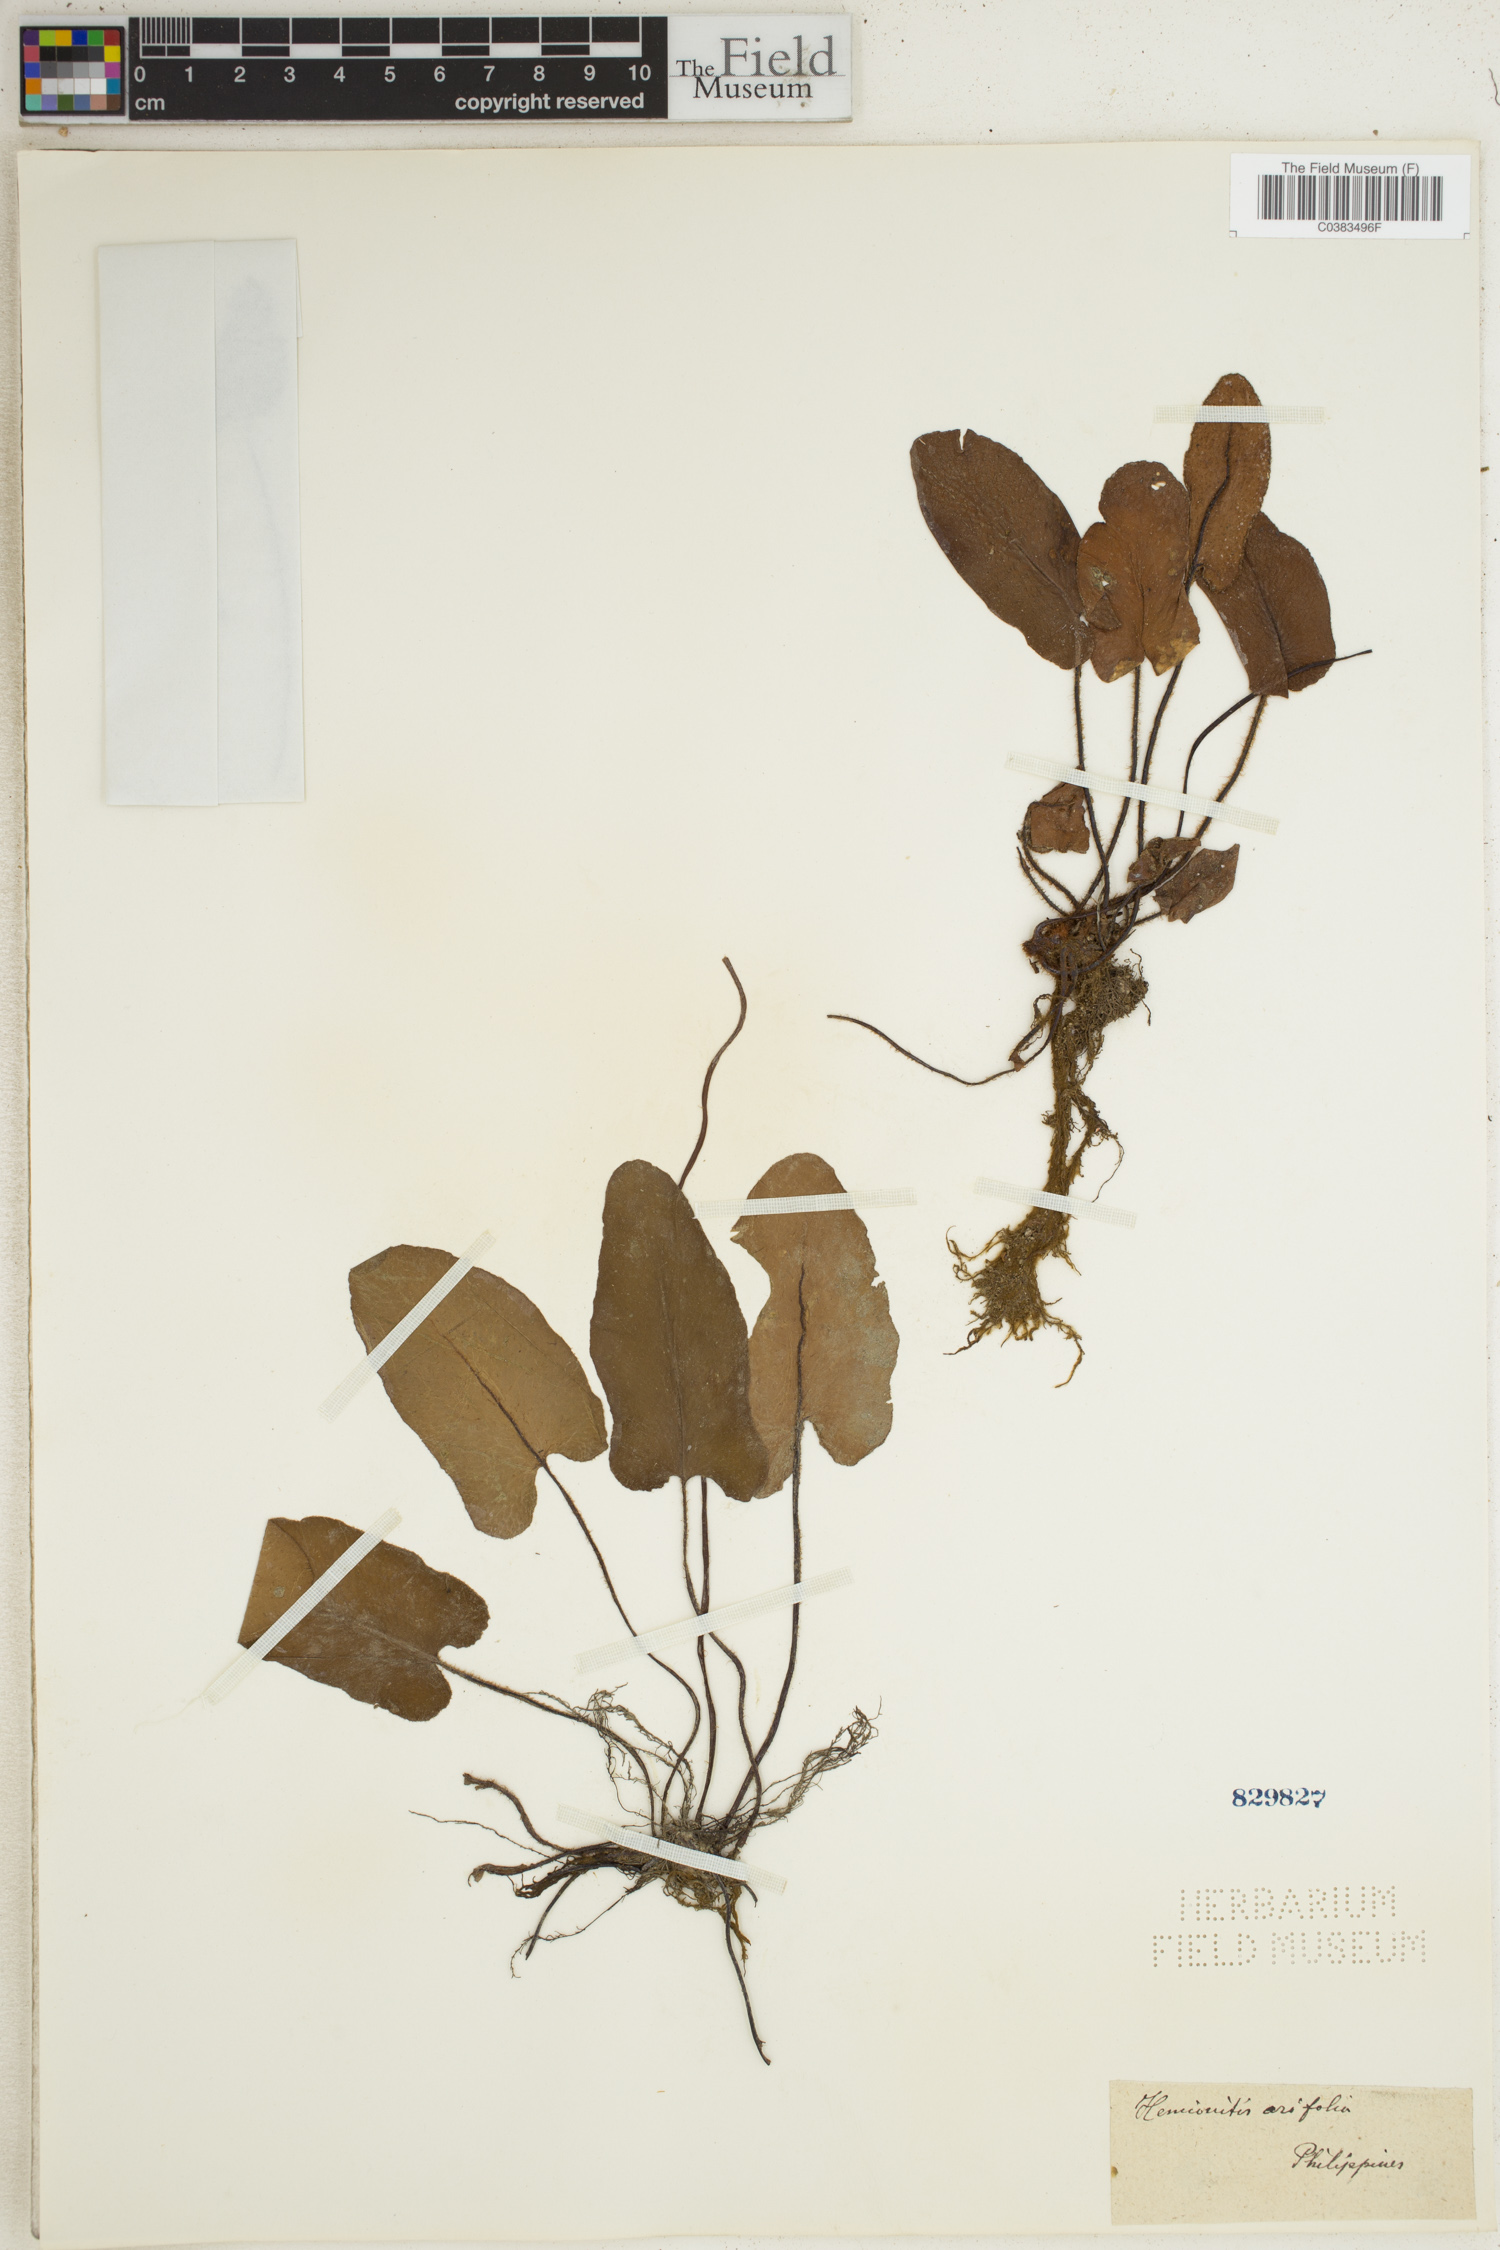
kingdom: Plantae
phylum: Tracheophyta
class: Polypodiopsida
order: Polypodiales
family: Pteridaceae
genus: Acrostichum
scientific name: Acrostichum aureum
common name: Leather fern
